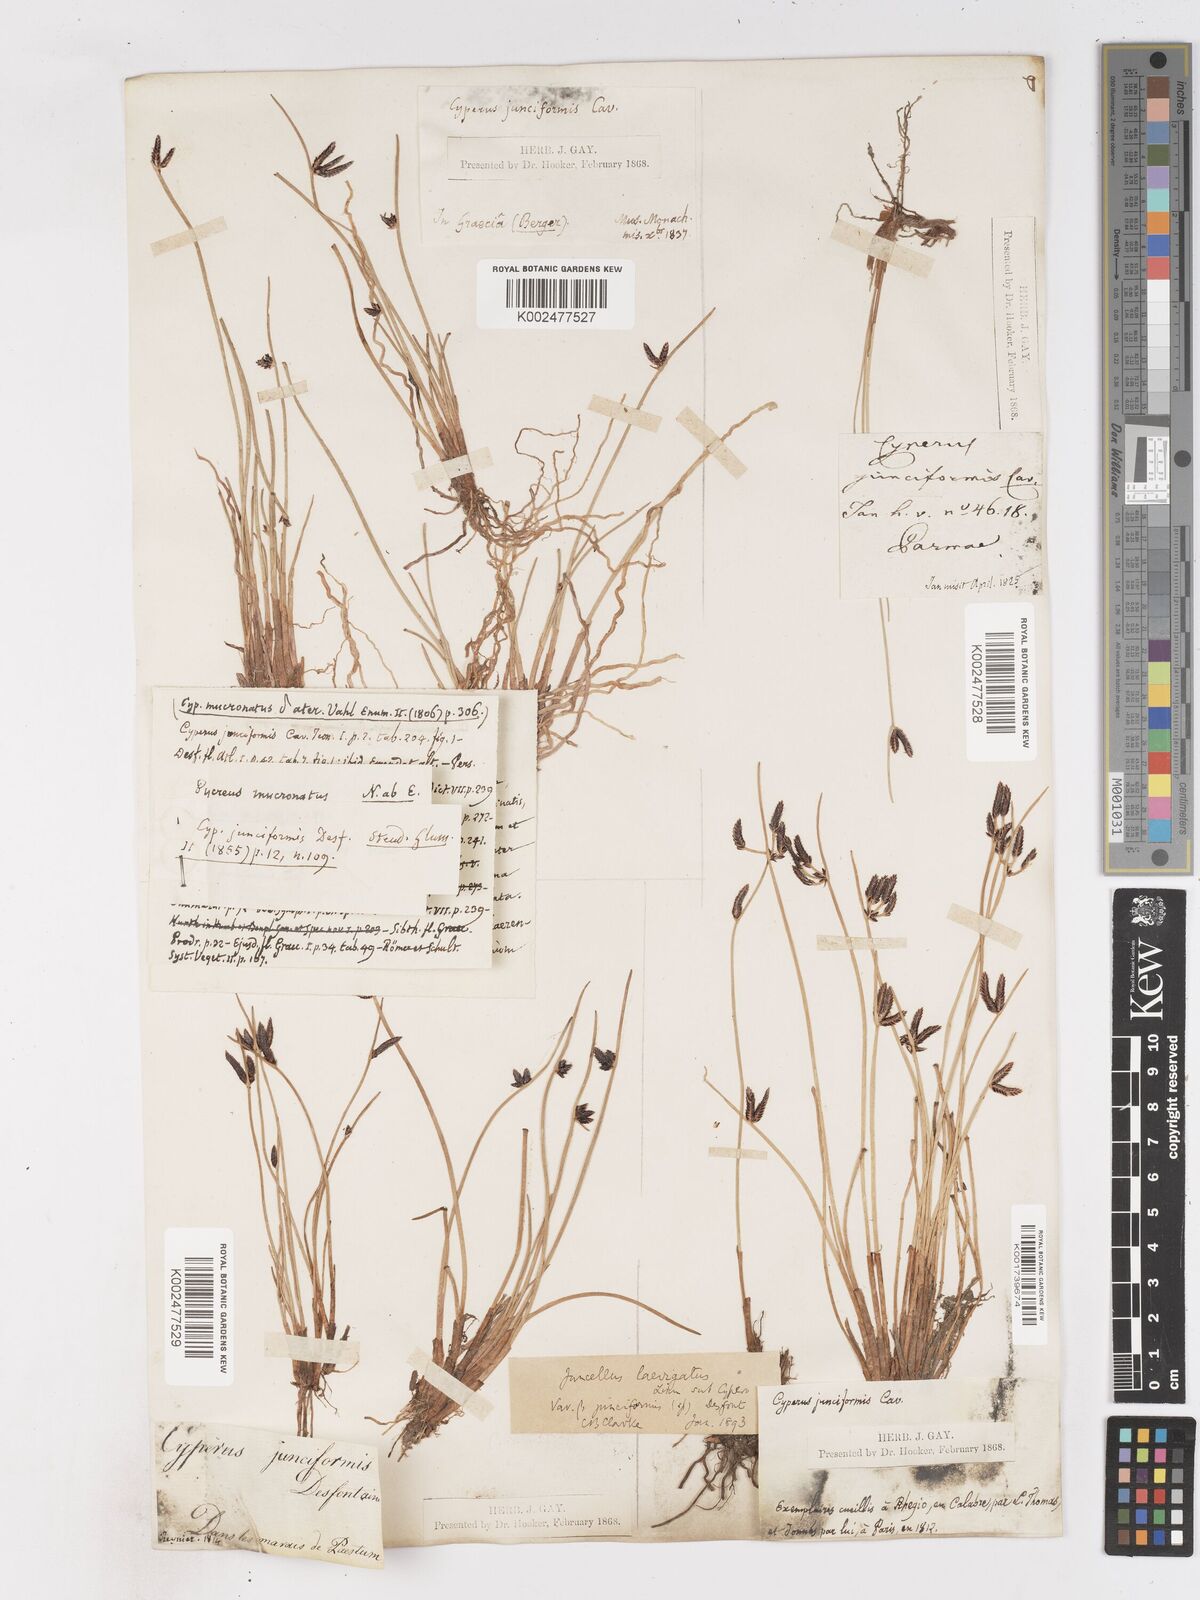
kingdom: Plantae
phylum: Tracheophyta
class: Liliopsida
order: Poales
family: Cyperaceae
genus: Cyperus
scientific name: Cyperus laevigatus
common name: Smooth flat sedge
